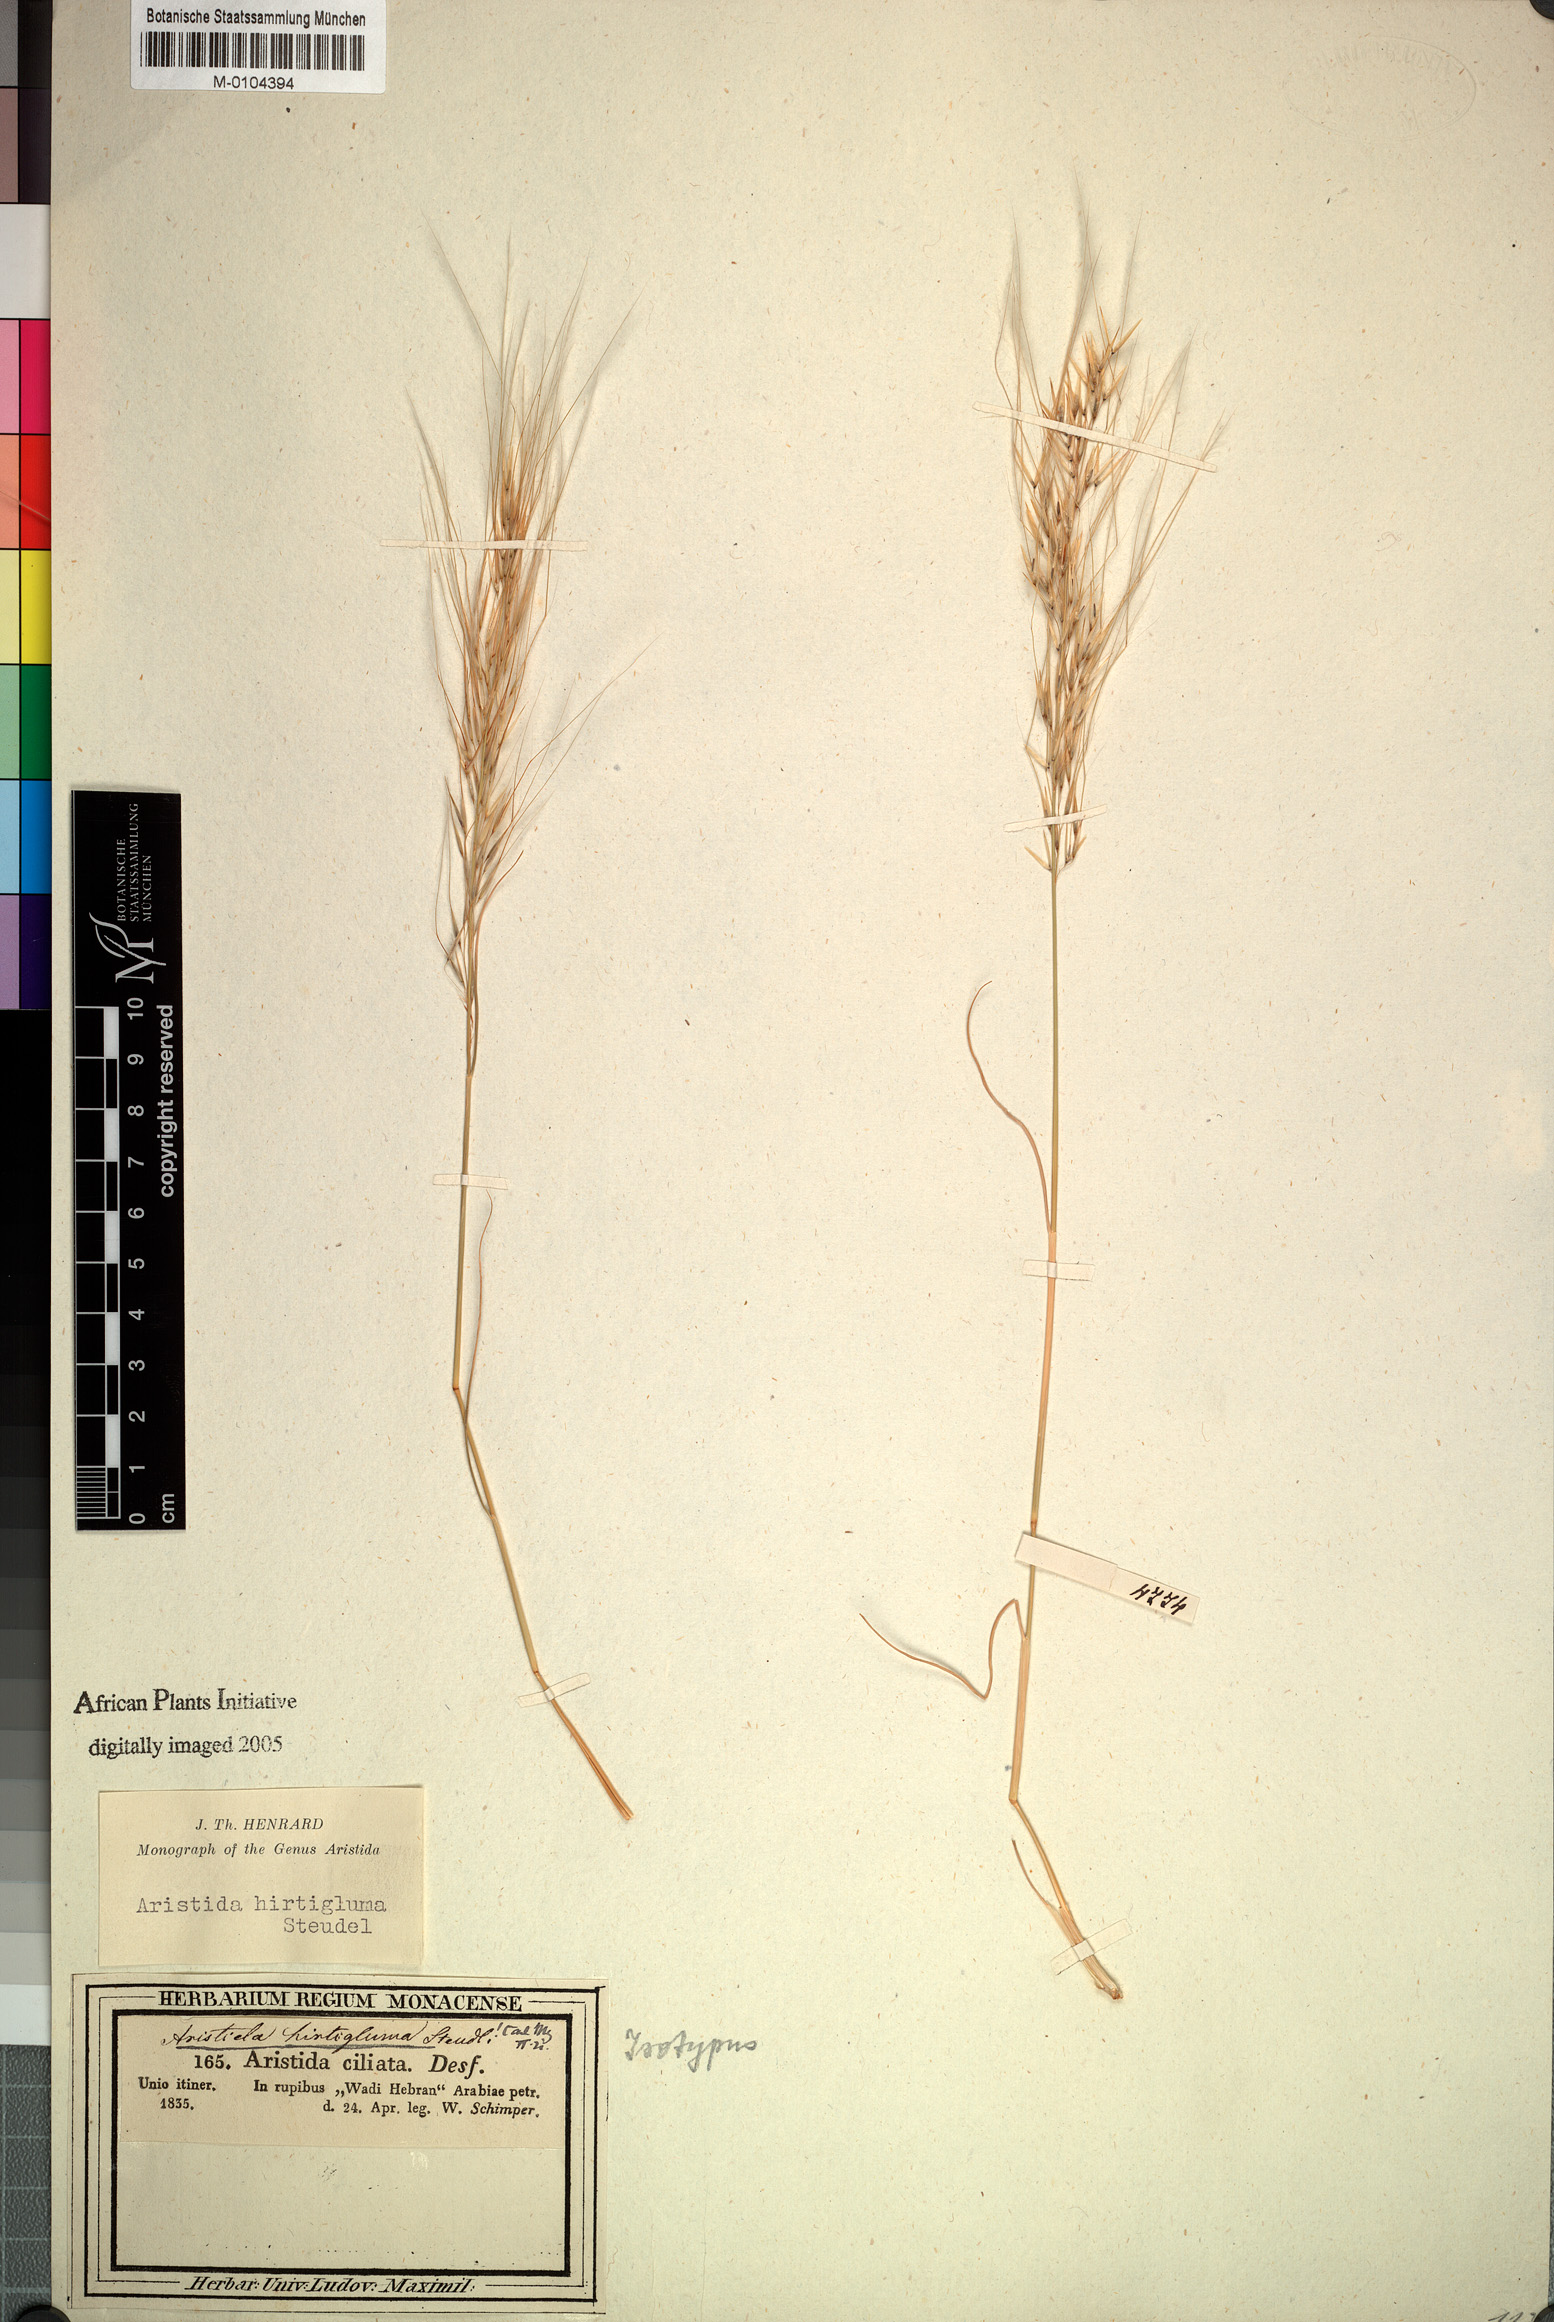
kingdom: Plantae
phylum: Tracheophyta
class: Liliopsida
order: Poales
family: Poaceae
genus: Stipagrostis
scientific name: Stipagrostis hirtigluma
